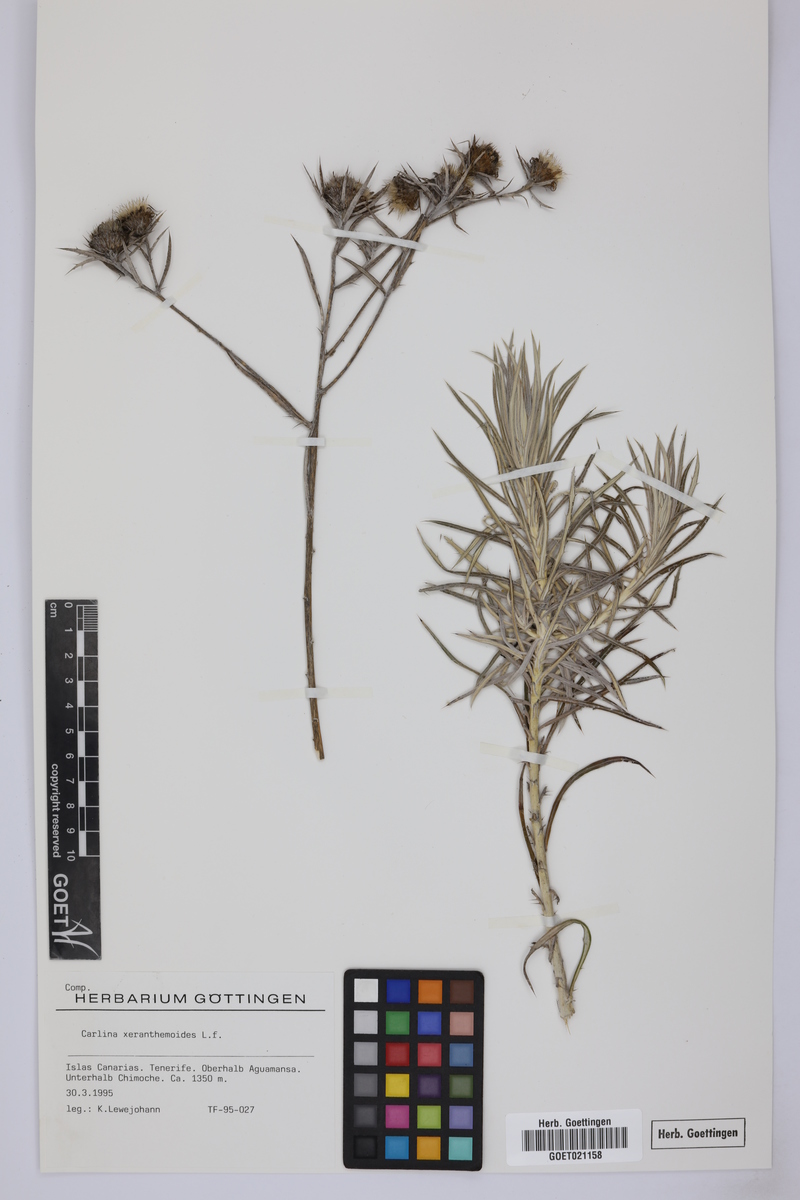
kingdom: Plantae
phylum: Tracheophyta
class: Magnoliopsida
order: Asterales
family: Asteraceae
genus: Carlina
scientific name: Carlina xeranthemoides
